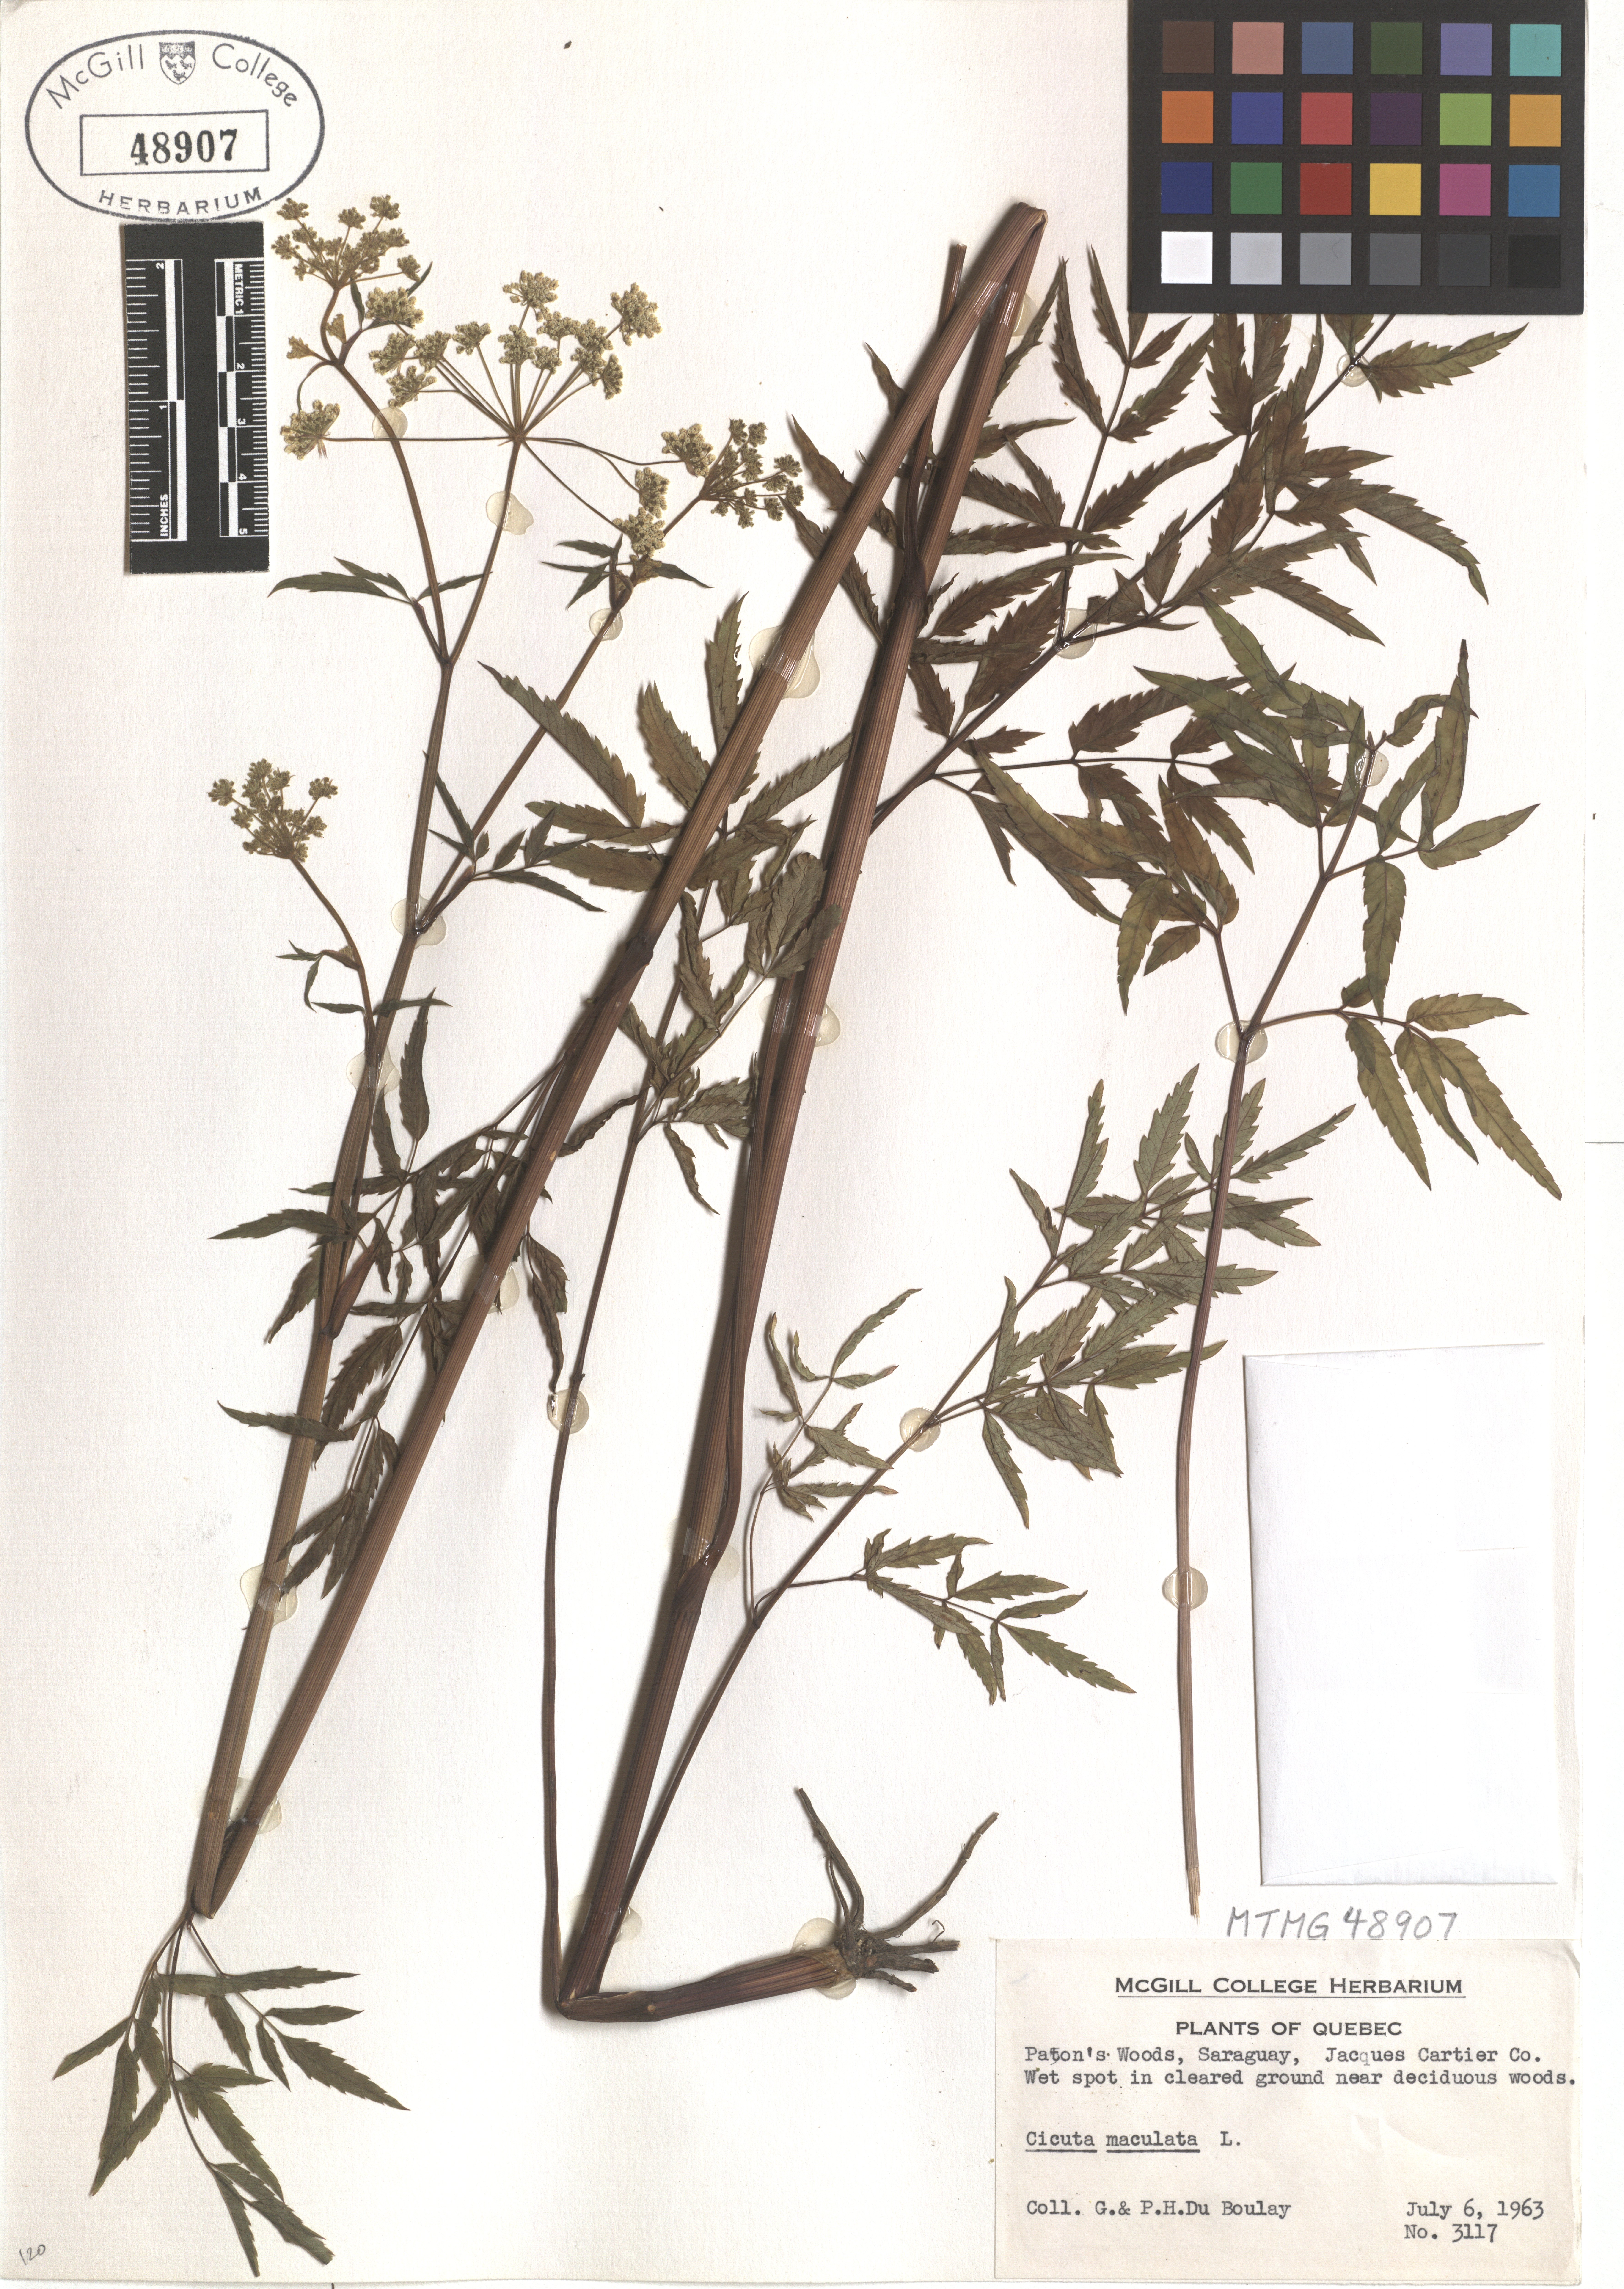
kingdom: Plantae
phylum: Tracheophyta
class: Magnoliopsida
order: Apiales
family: Apiaceae
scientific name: Apiaceae
